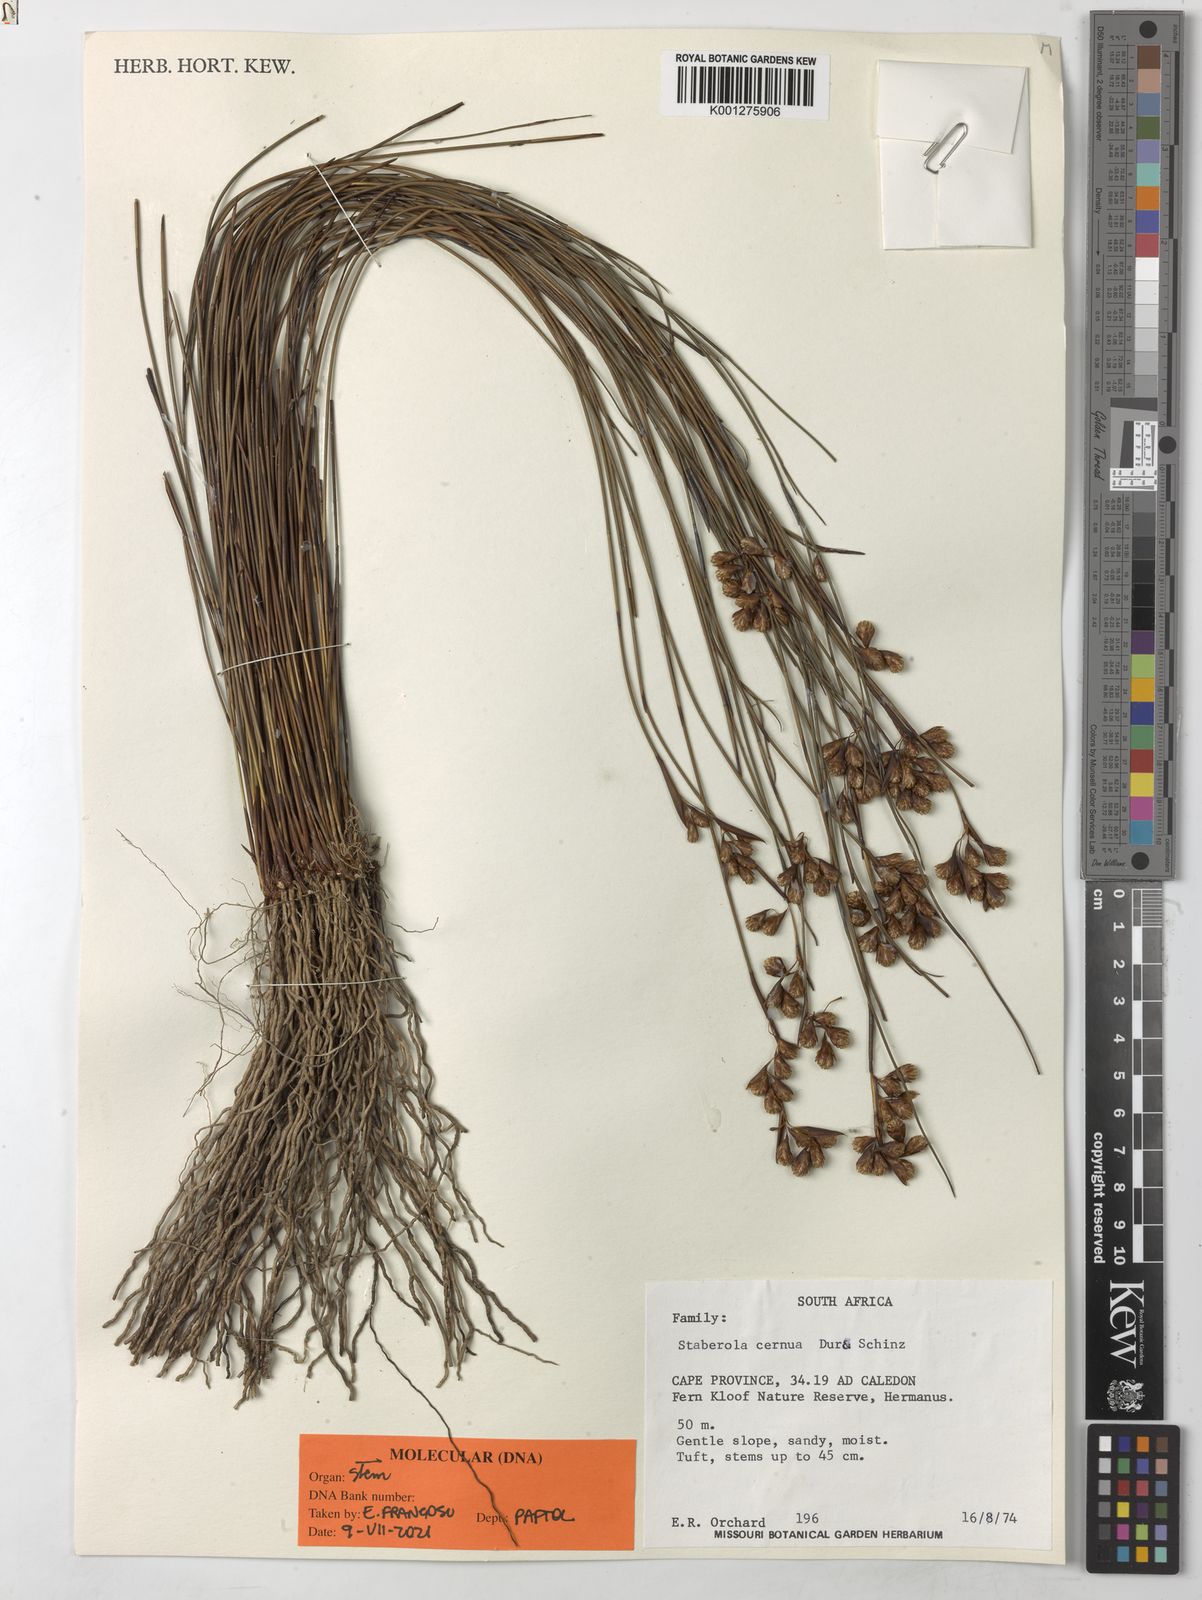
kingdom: Plantae
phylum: Tracheophyta
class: Liliopsida
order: Poales
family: Restionaceae
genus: Staberoha
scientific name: Staberoha cernua
